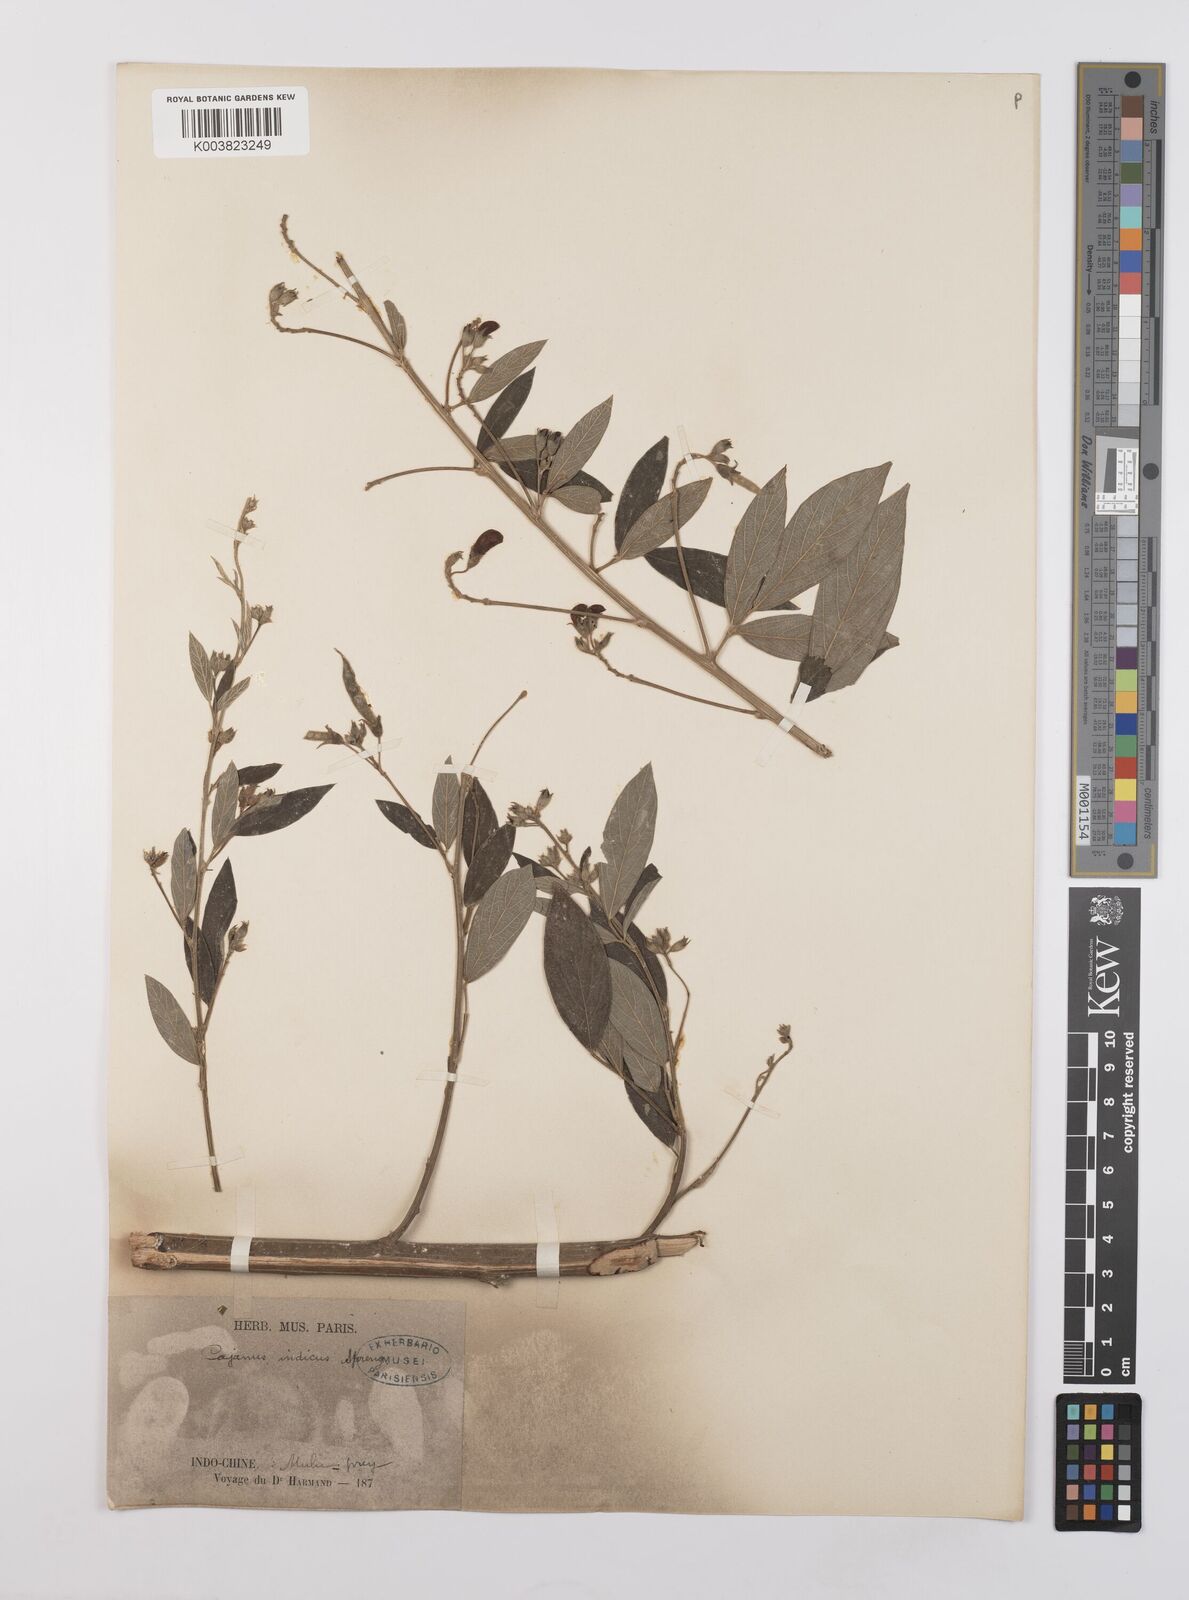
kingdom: Plantae
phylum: Tracheophyta
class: Magnoliopsida
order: Fabales
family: Fabaceae
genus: Cajanus
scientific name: Cajanus cajan
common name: Pigeonpea
